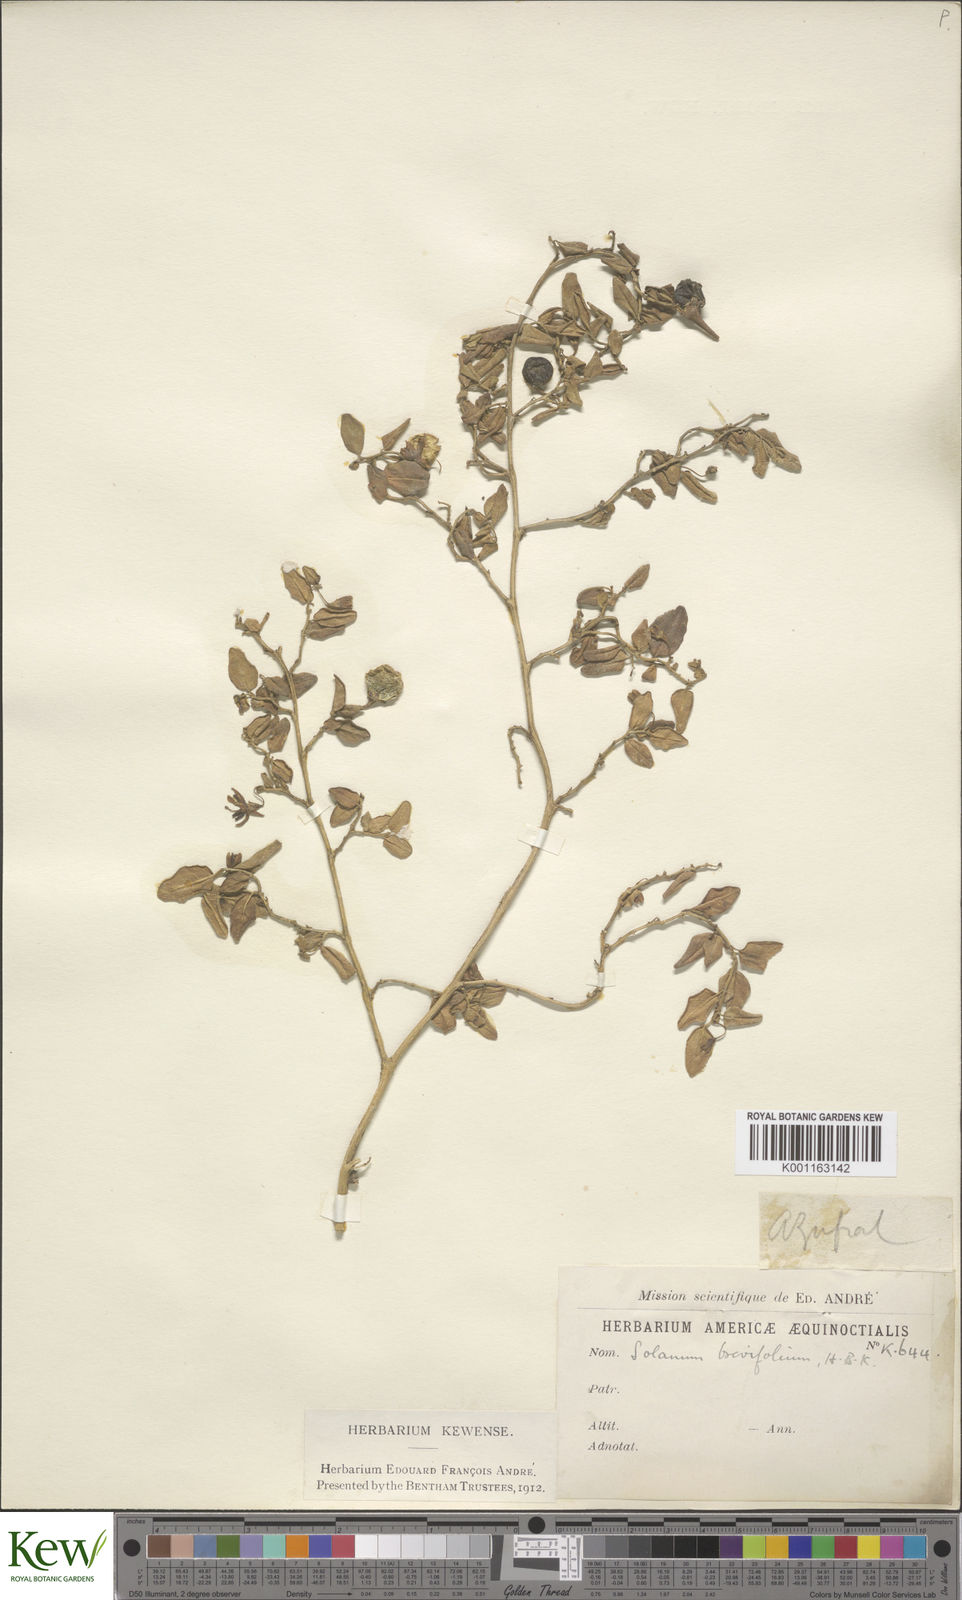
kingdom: Plantae
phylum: Tracheophyta
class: Magnoliopsida
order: Solanales
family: Solanaceae
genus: Solanum
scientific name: Solanum brevifolium
